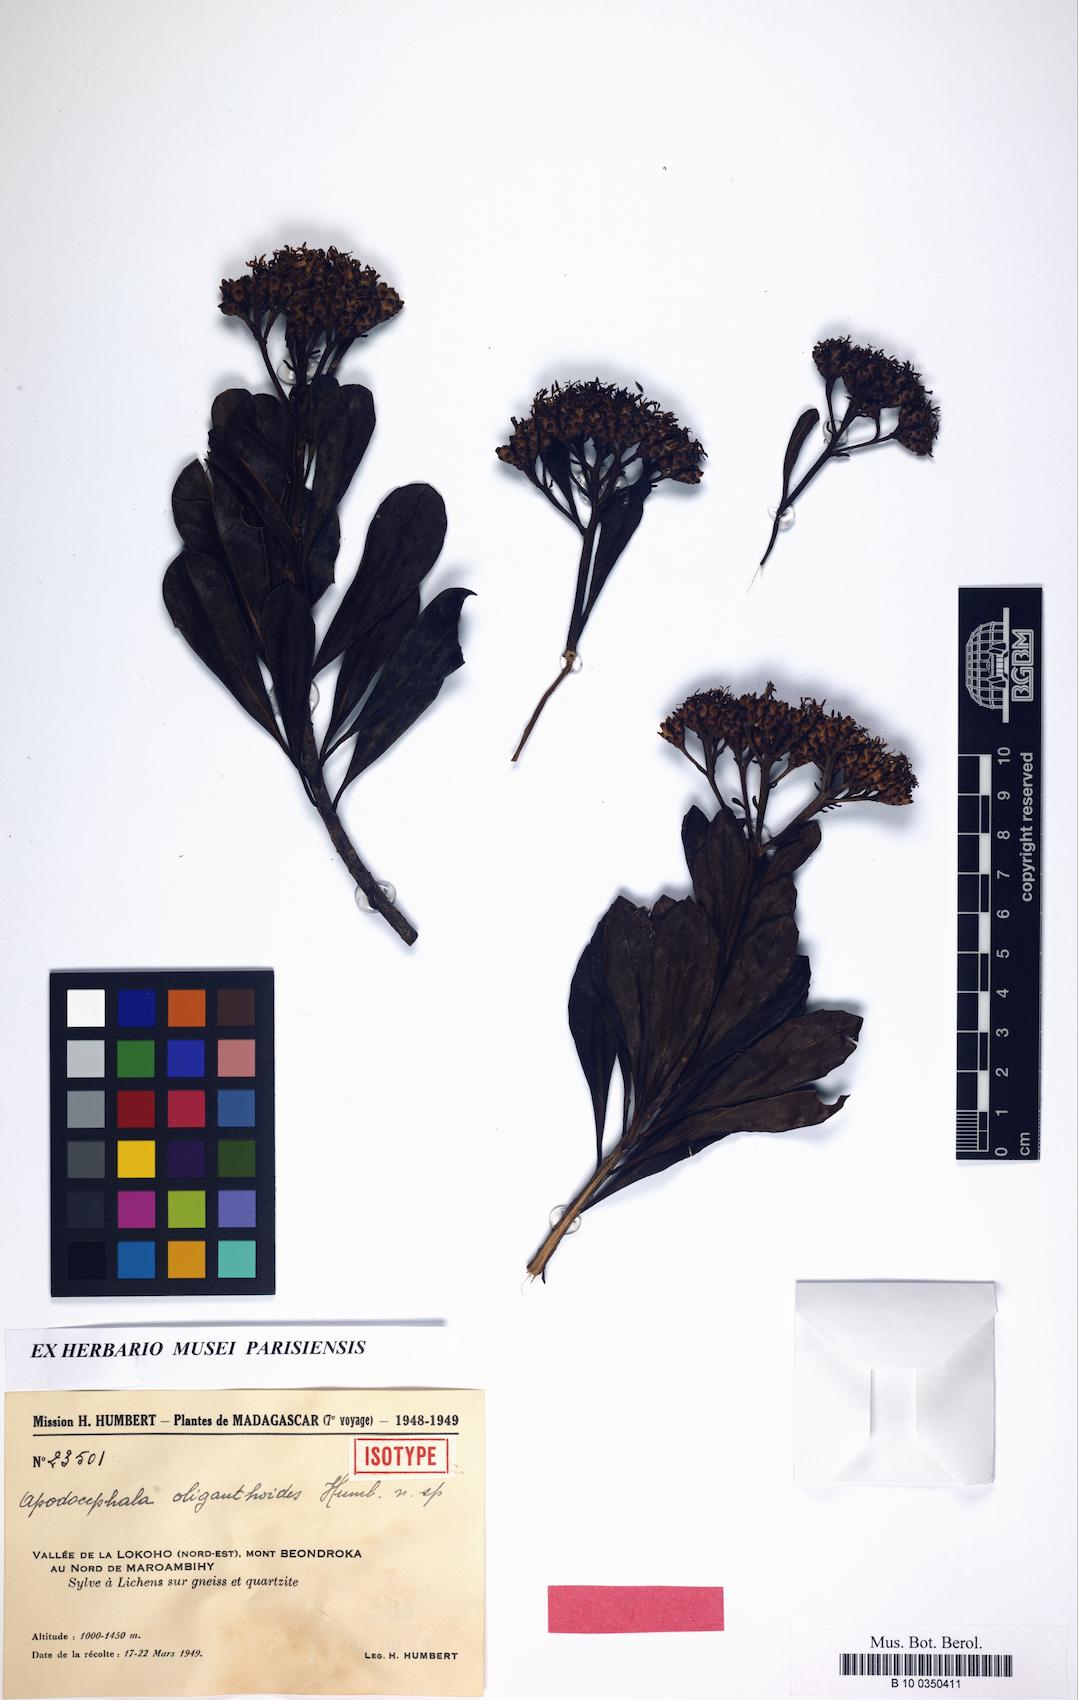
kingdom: Plantae
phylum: Tracheophyta
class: Magnoliopsida
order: Asterales
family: Asteraceae
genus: Apodocephala
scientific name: Apodocephala oliganthoides
